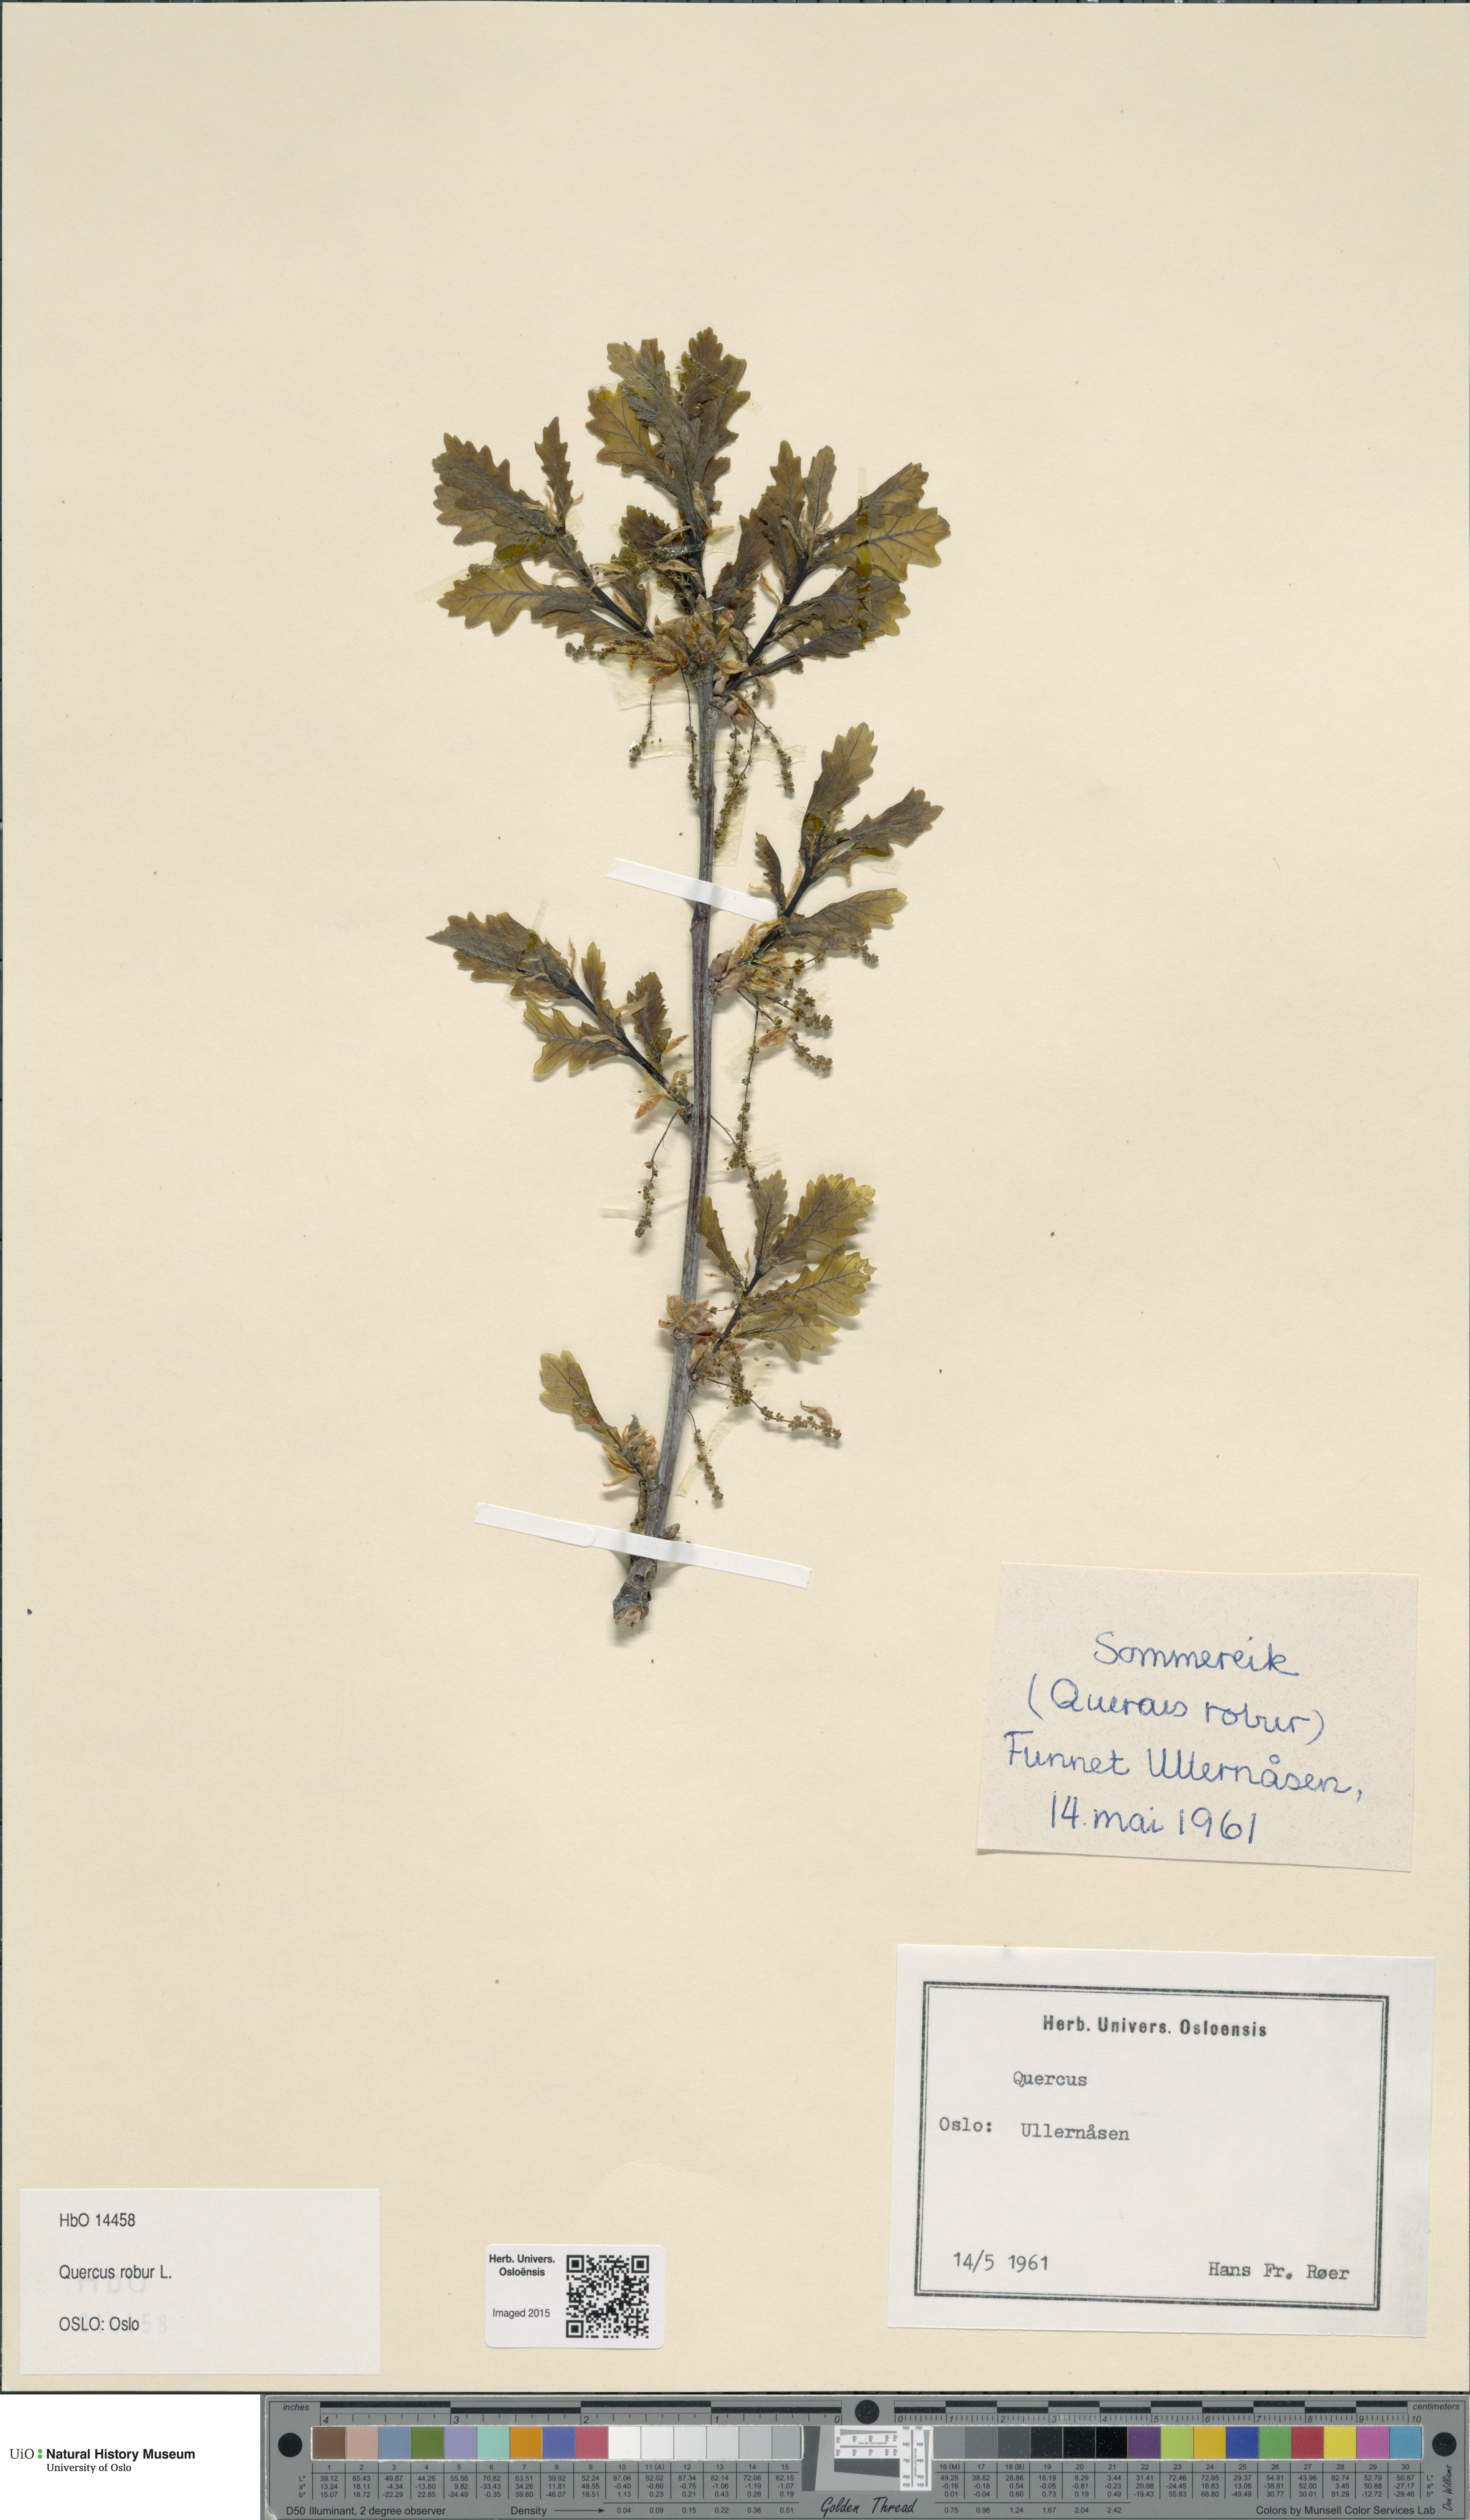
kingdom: Plantae
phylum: Tracheophyta
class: Magnoliopsida
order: Fagales
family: Fagaceae
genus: Quercus
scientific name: Quercus robur
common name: Pedunculate oak
